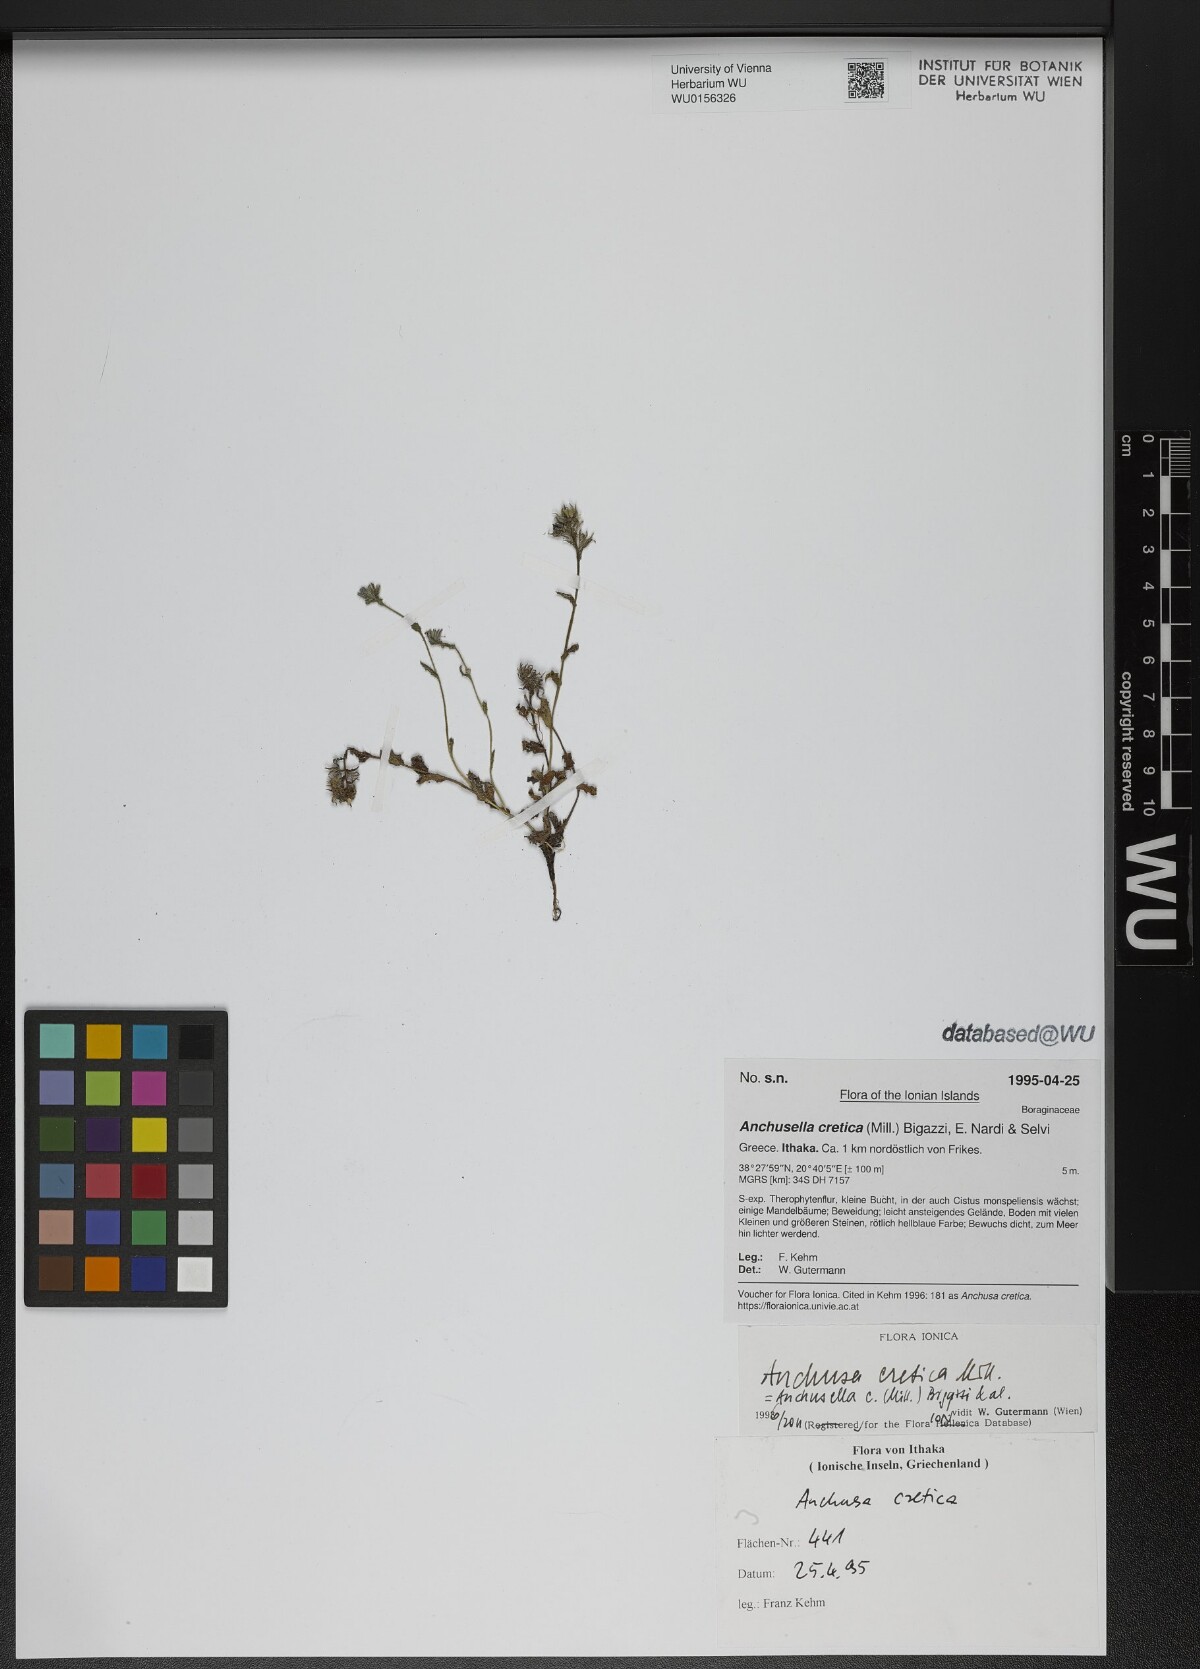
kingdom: Plantae
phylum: Tracheophyta
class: Magnoliopsida
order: Boraginales
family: Boraginaceae
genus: Anchusella
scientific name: Anchusella cretica
